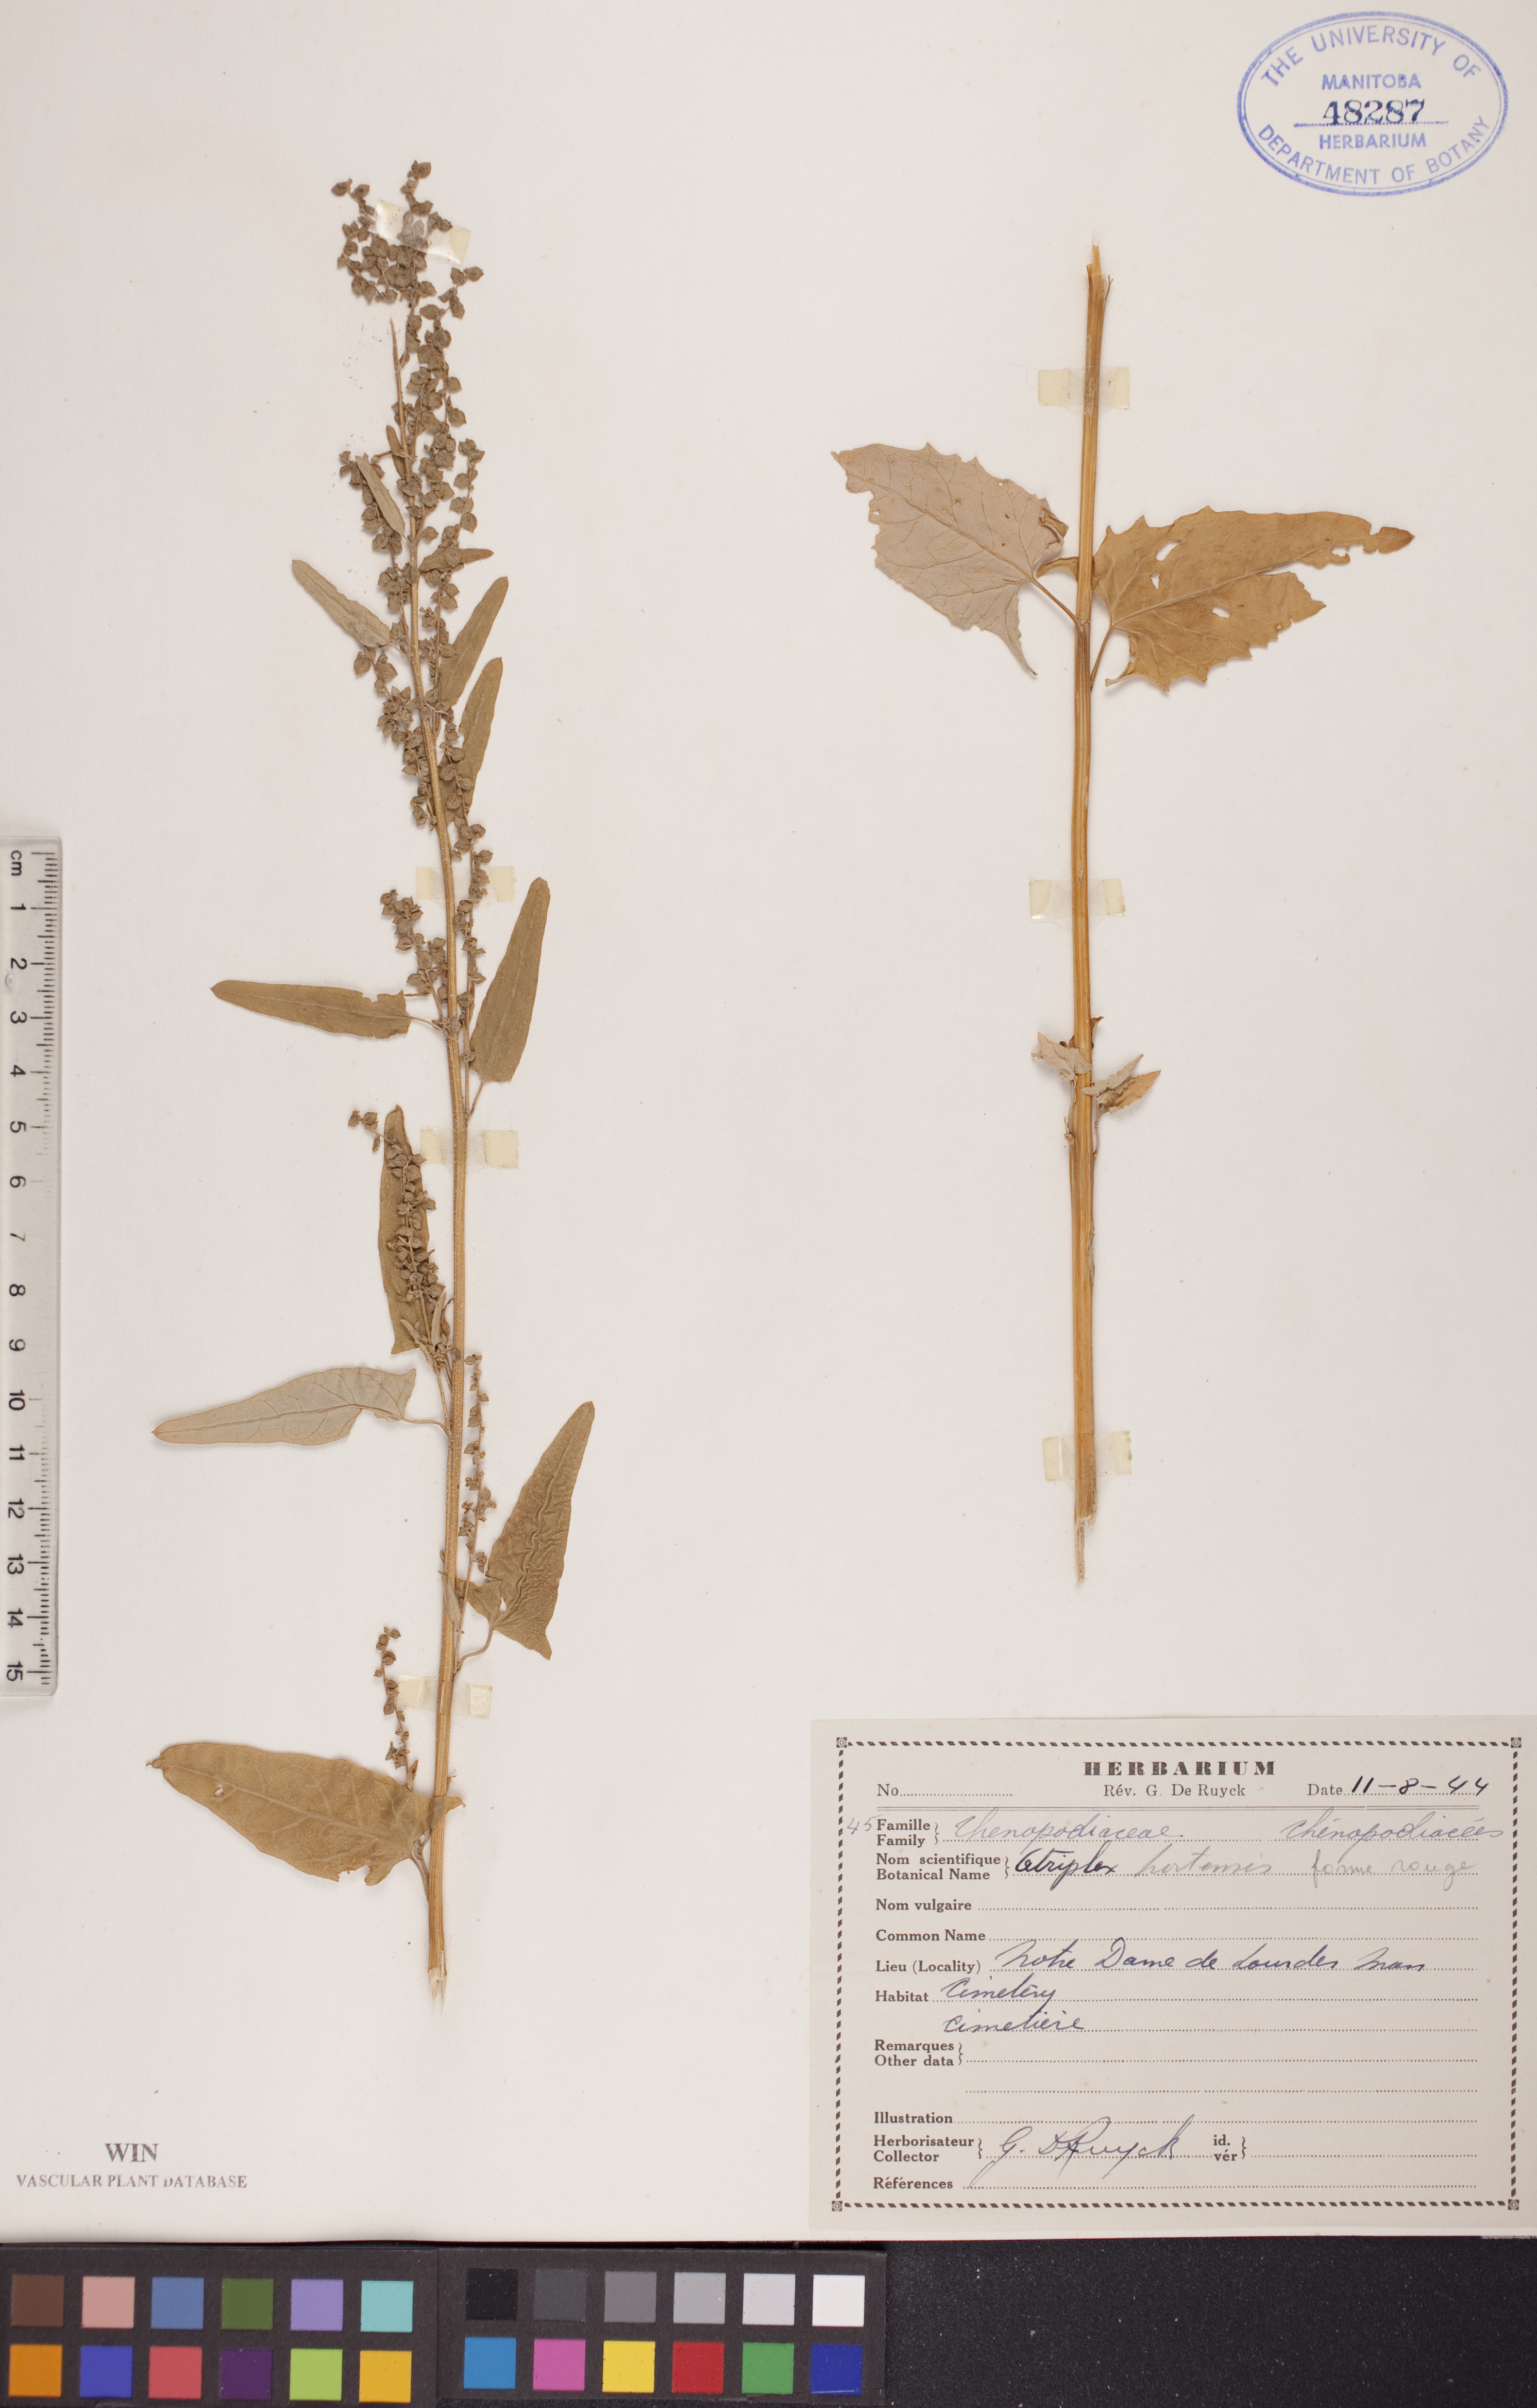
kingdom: Plantae
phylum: Tracheophyta
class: Magnoliopsida
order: Caryophyllales
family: Amaranthaceae
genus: Atriplex
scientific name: Atriplex hortensis
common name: Garden orache
